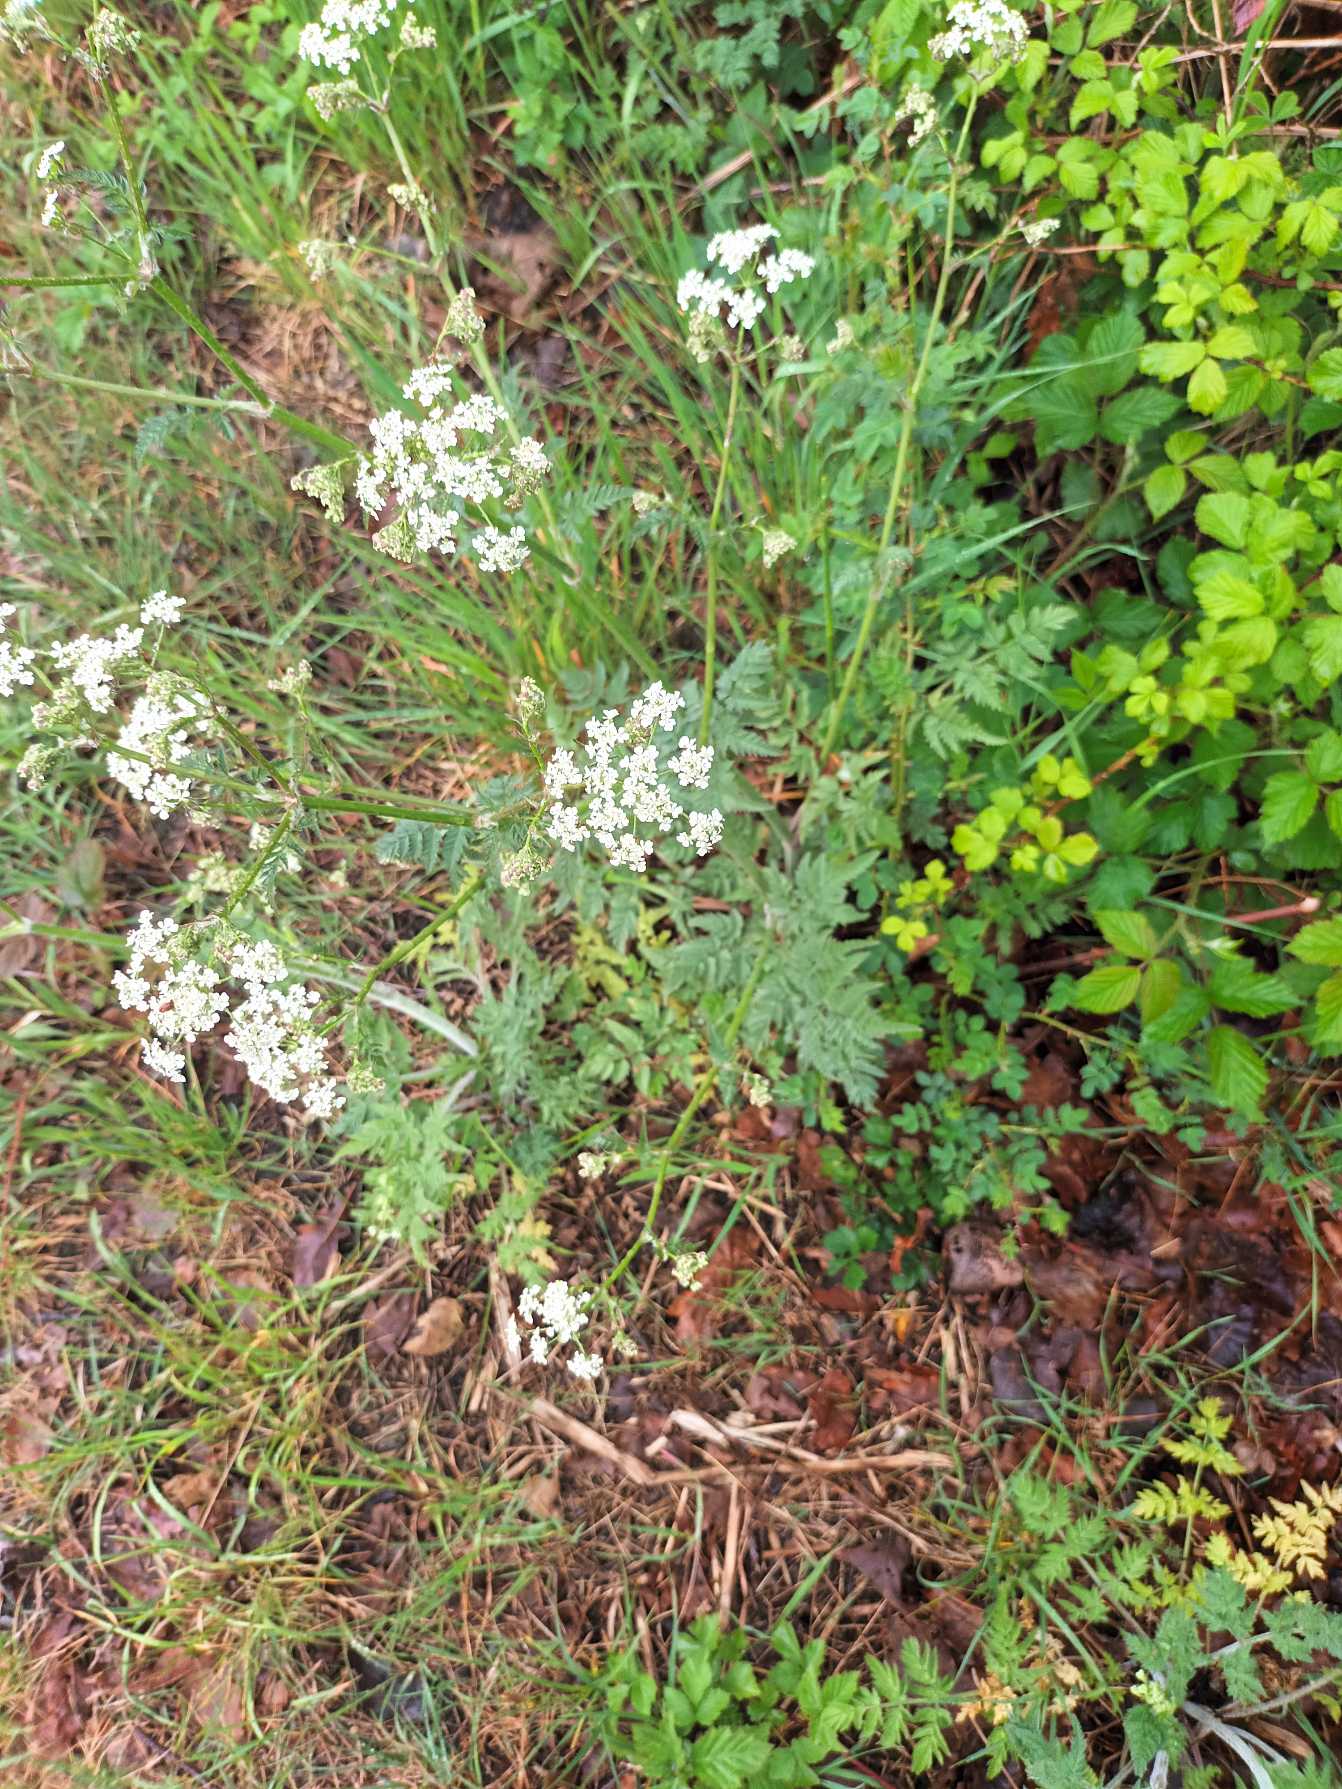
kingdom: Plantae
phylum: Tracheophyta
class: Magnoliopsida
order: Apiales
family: Apiaceae
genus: Anthriscus
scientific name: Anthriscus sylvestris
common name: Vild kørvel
